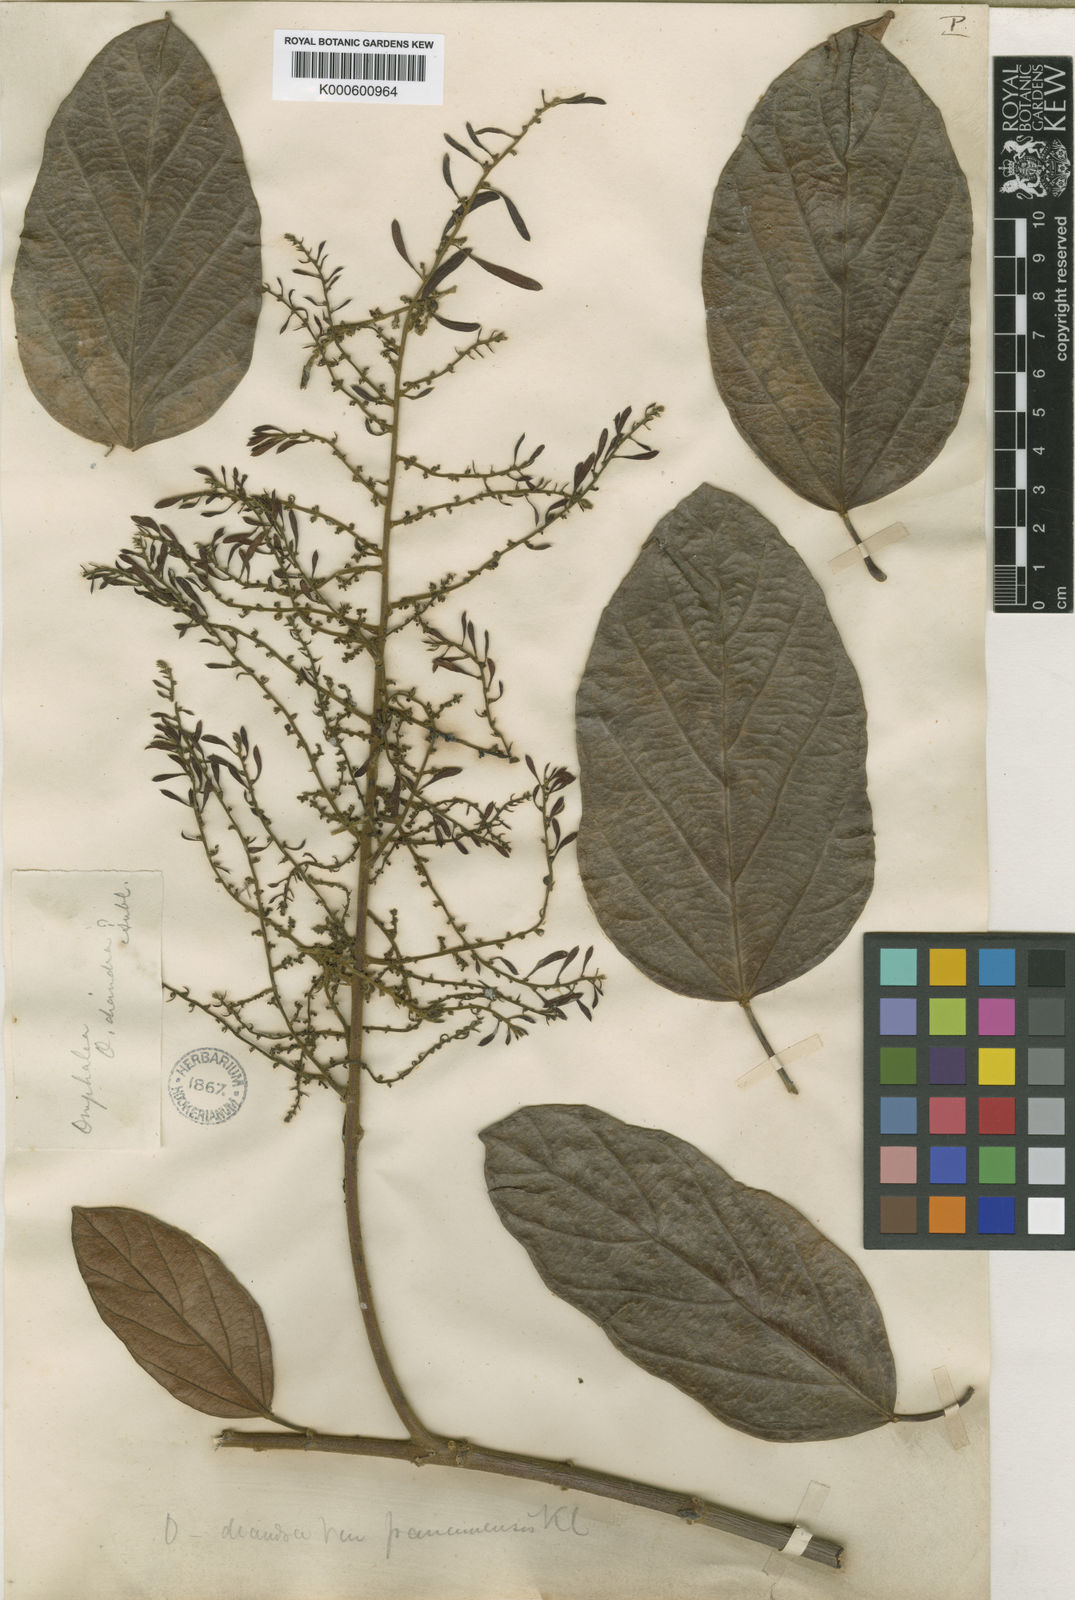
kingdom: Plantae
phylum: Tracheophyta
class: Magnoliopsida
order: Malpighiales
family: Euphorbiaceae
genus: Omphalea
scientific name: Omphalea diandra
